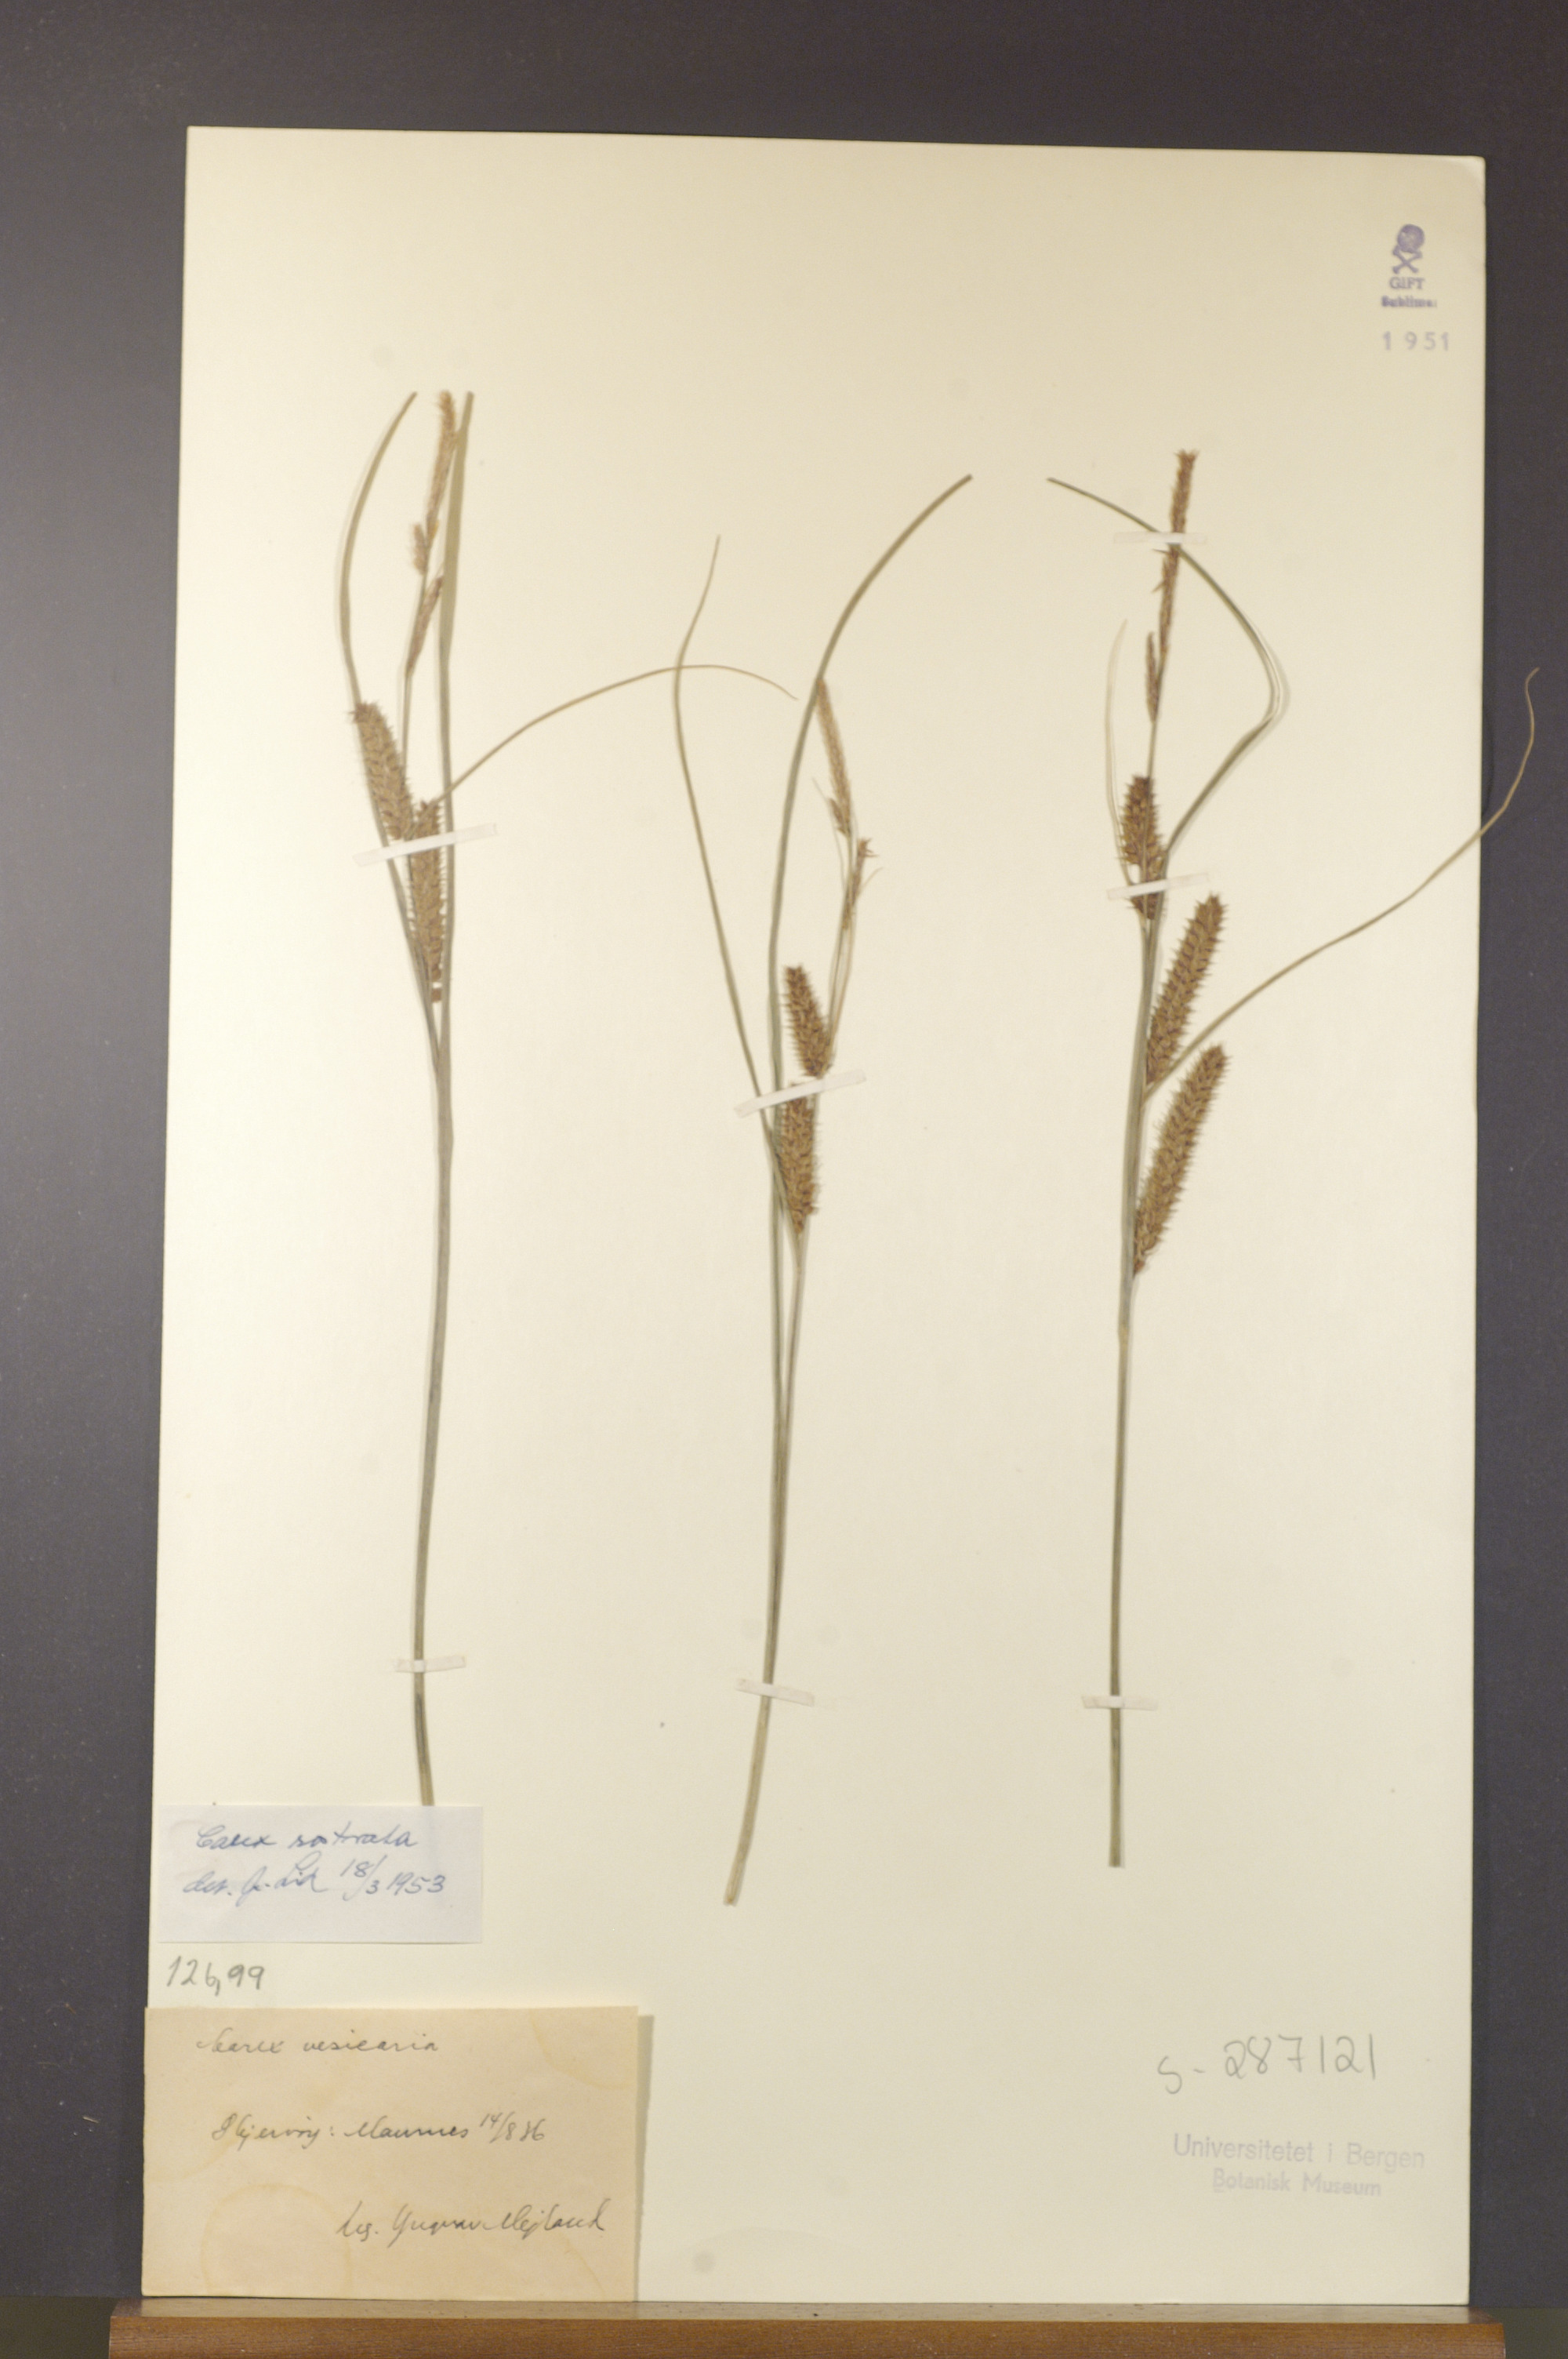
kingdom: Plantae
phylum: Tracheophyta
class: Liliopsida
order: Poales
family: Cyperaceae
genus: Carex
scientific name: Carex rostrata
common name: Bottle sedge
